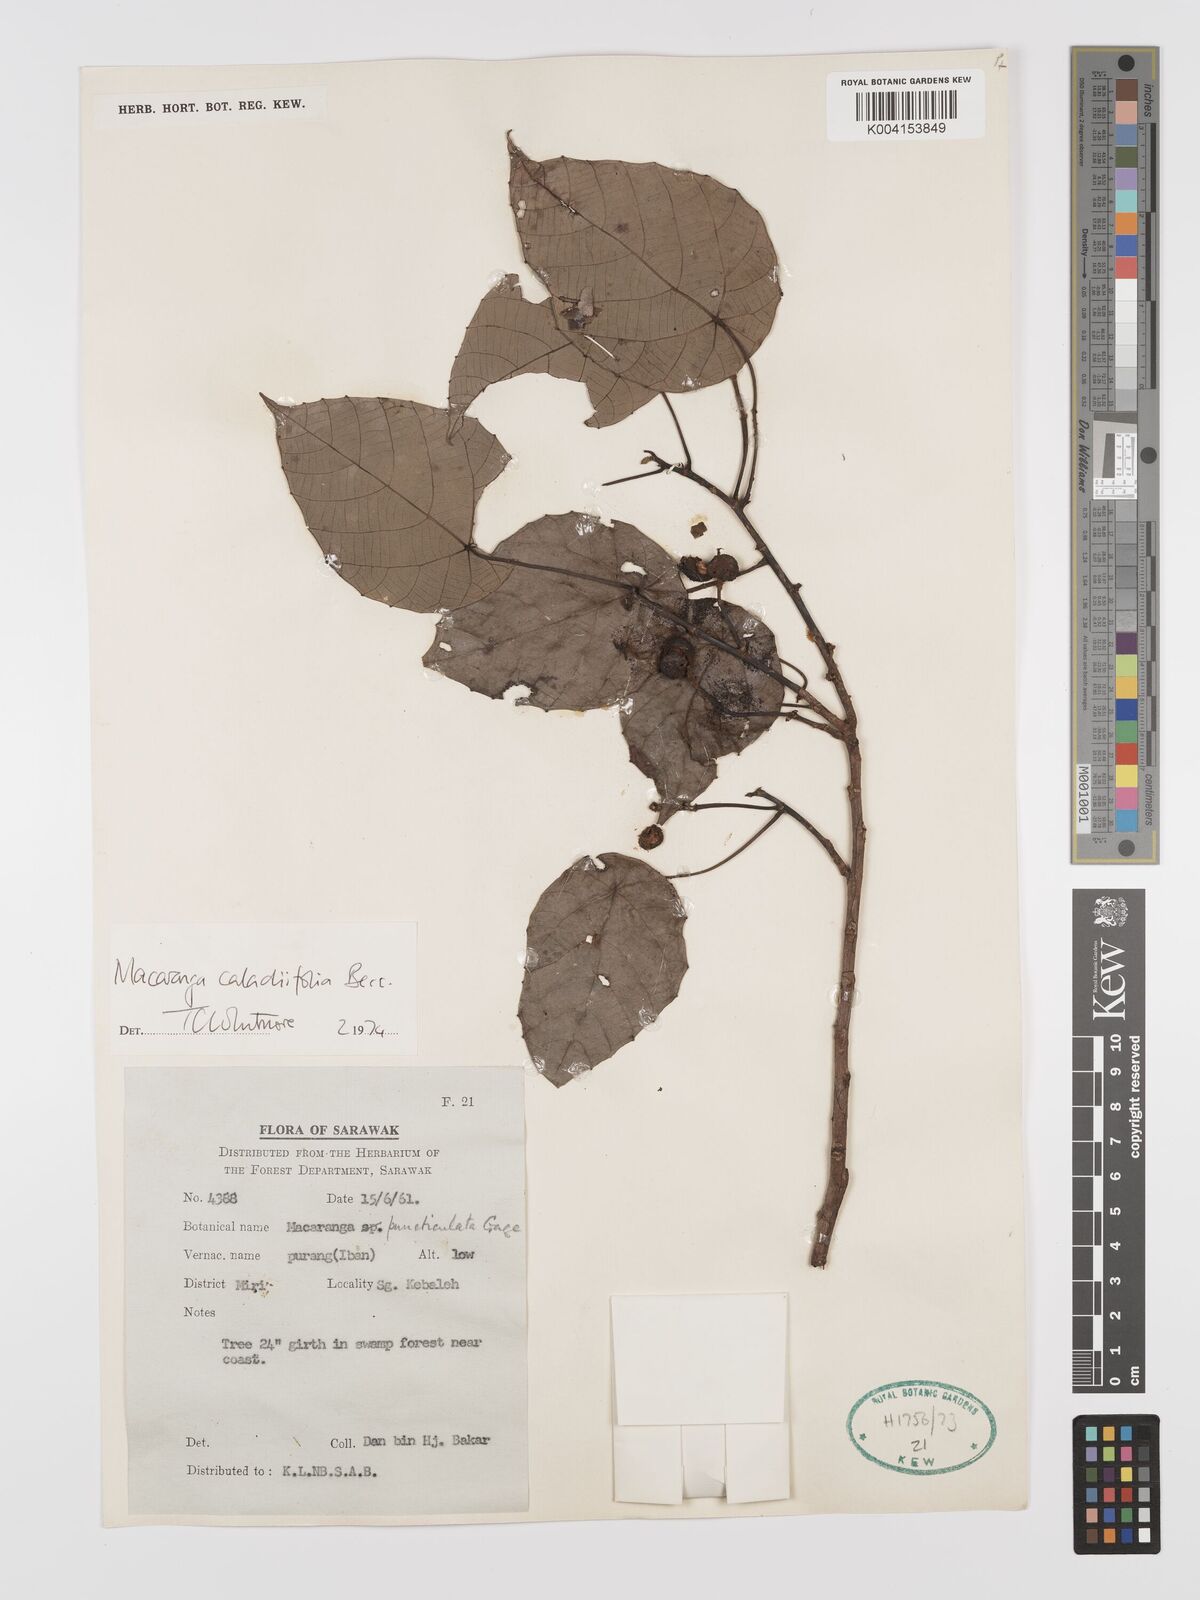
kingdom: Plantae
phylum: Tracheophyta
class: Magnoliopsida
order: Malpighiales
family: Euphorbiaceae
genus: Macaranga
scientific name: Macaranga caladiifolia
